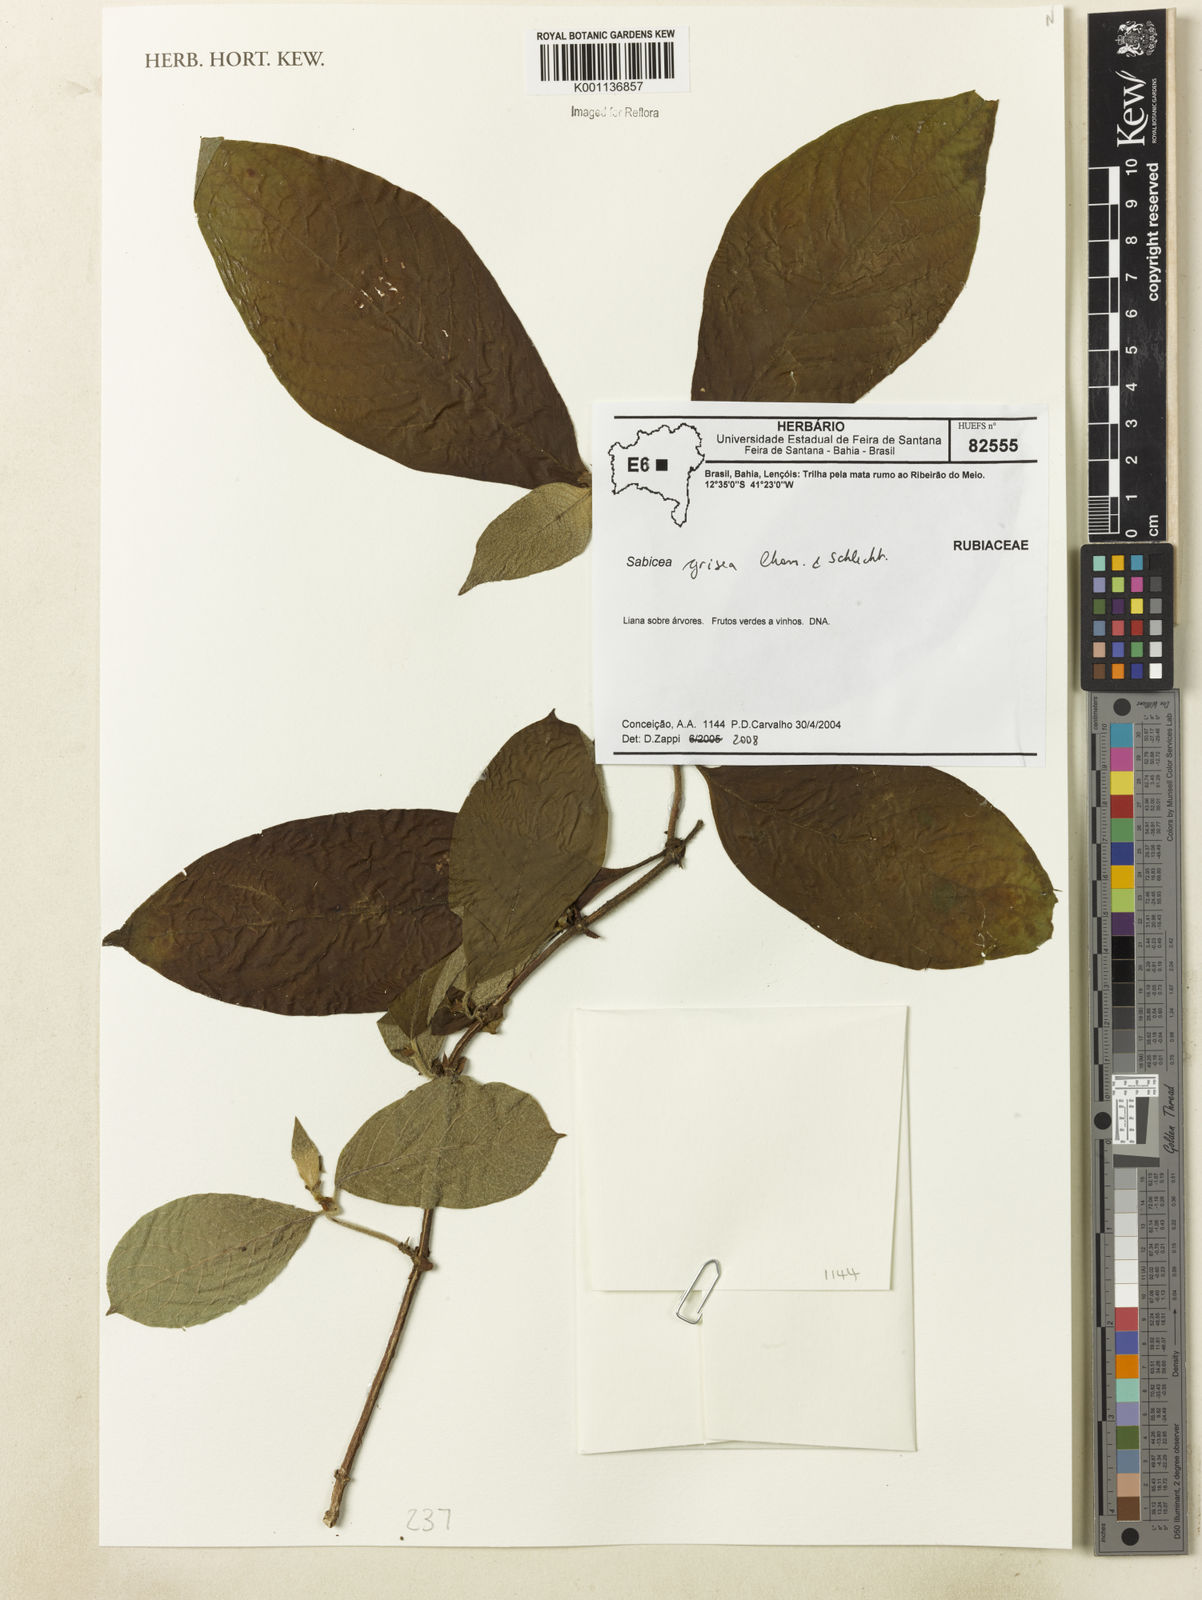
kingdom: Plantae
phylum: Tracheophyta
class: Magnoliopsida
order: Gentianales
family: Rubiaceae
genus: Sabicea
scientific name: Sabicea grisea
